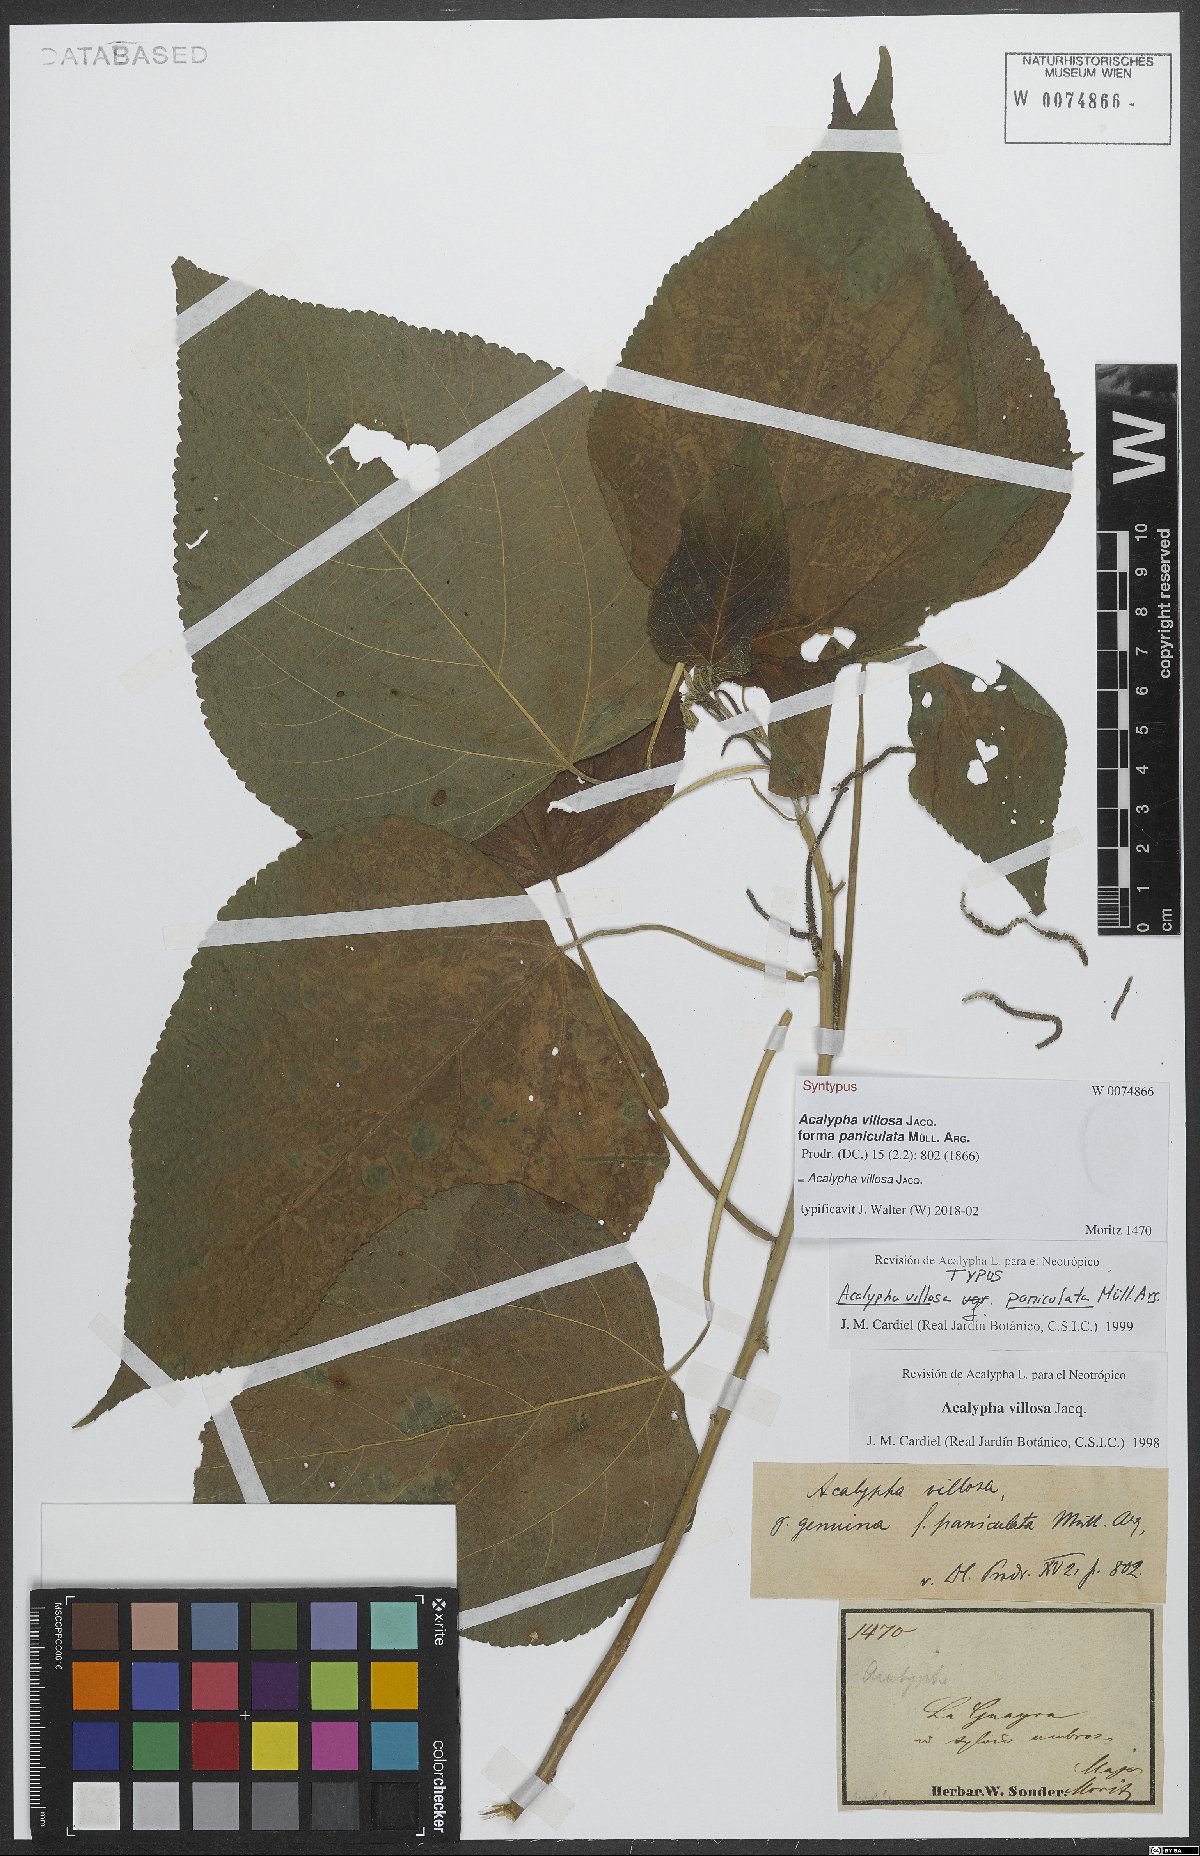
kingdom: Plantae
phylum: Tracheophyta
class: Magnoliopsida
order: Malpighiales
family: Euphorbiaceae
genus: Acalypha
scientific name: Acalypha villosa
